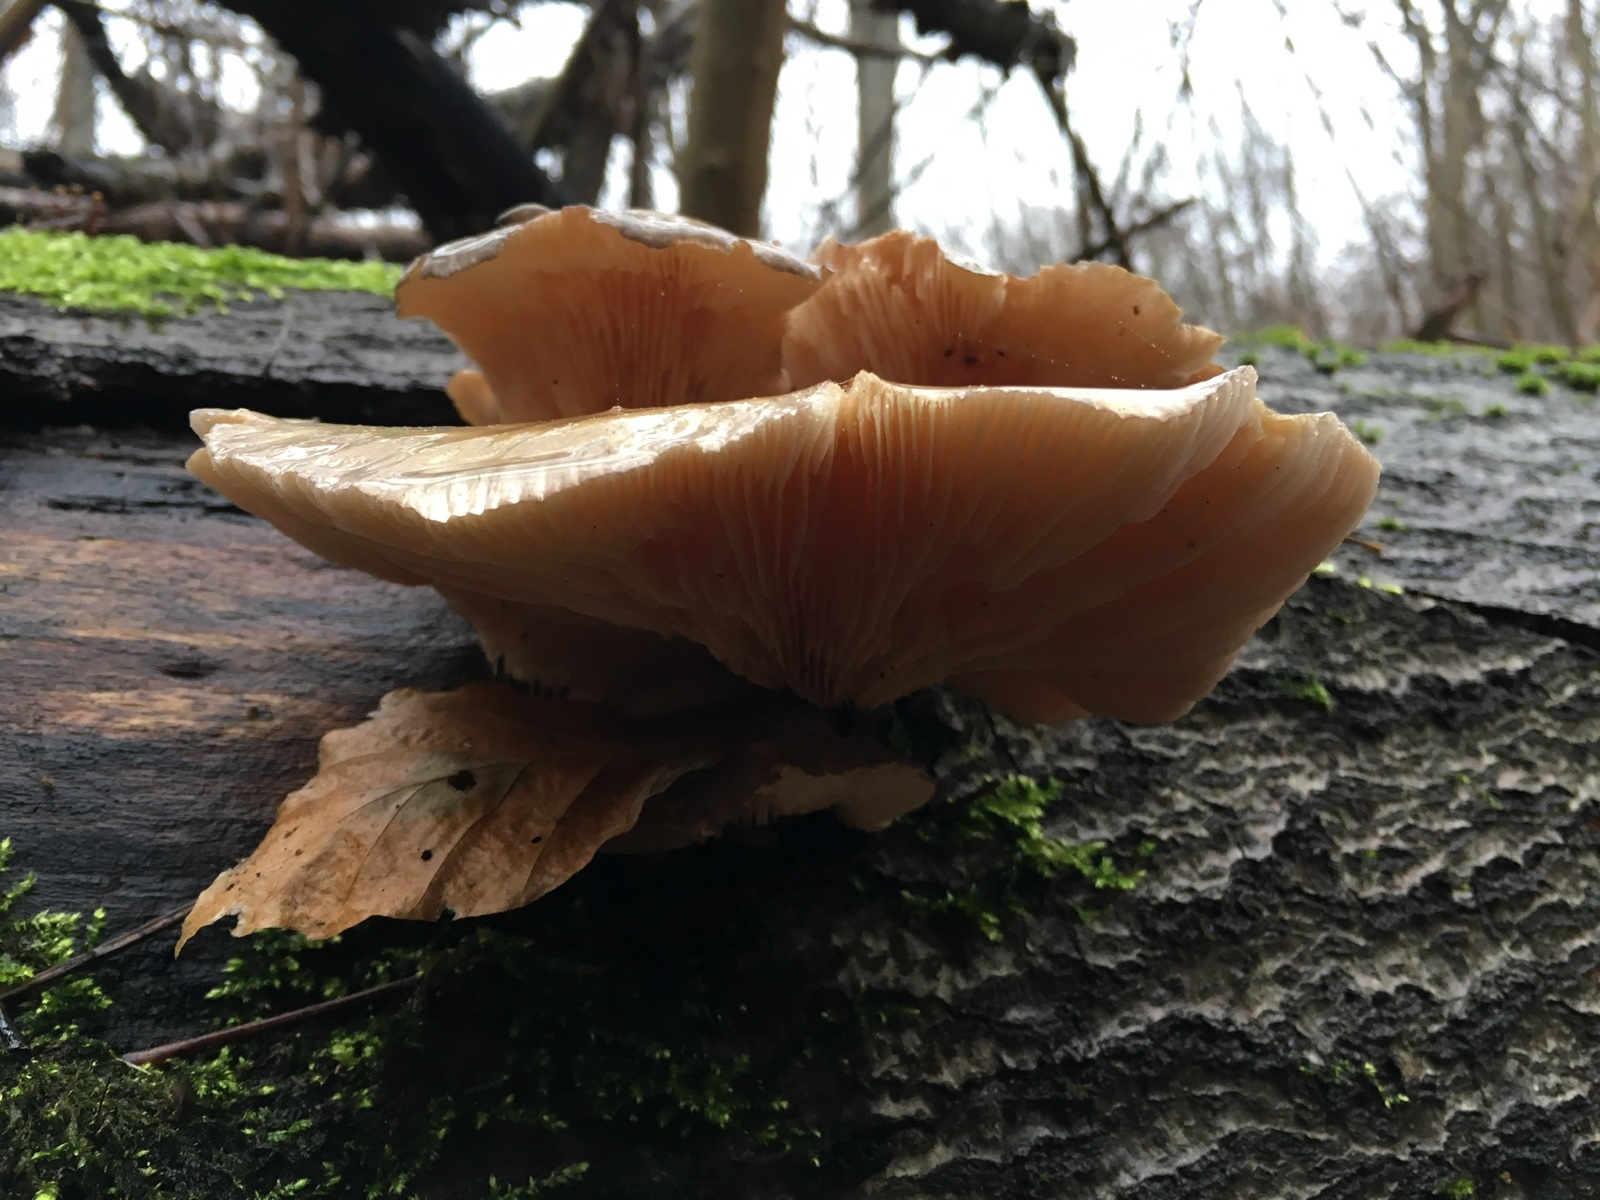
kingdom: Fungi
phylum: Basidiomycota
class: Agaricomycetes
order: Agaricales
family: Sarcomyxaceae
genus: Sarcomyxa
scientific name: Sarcomyxa serotina
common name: gummihat
